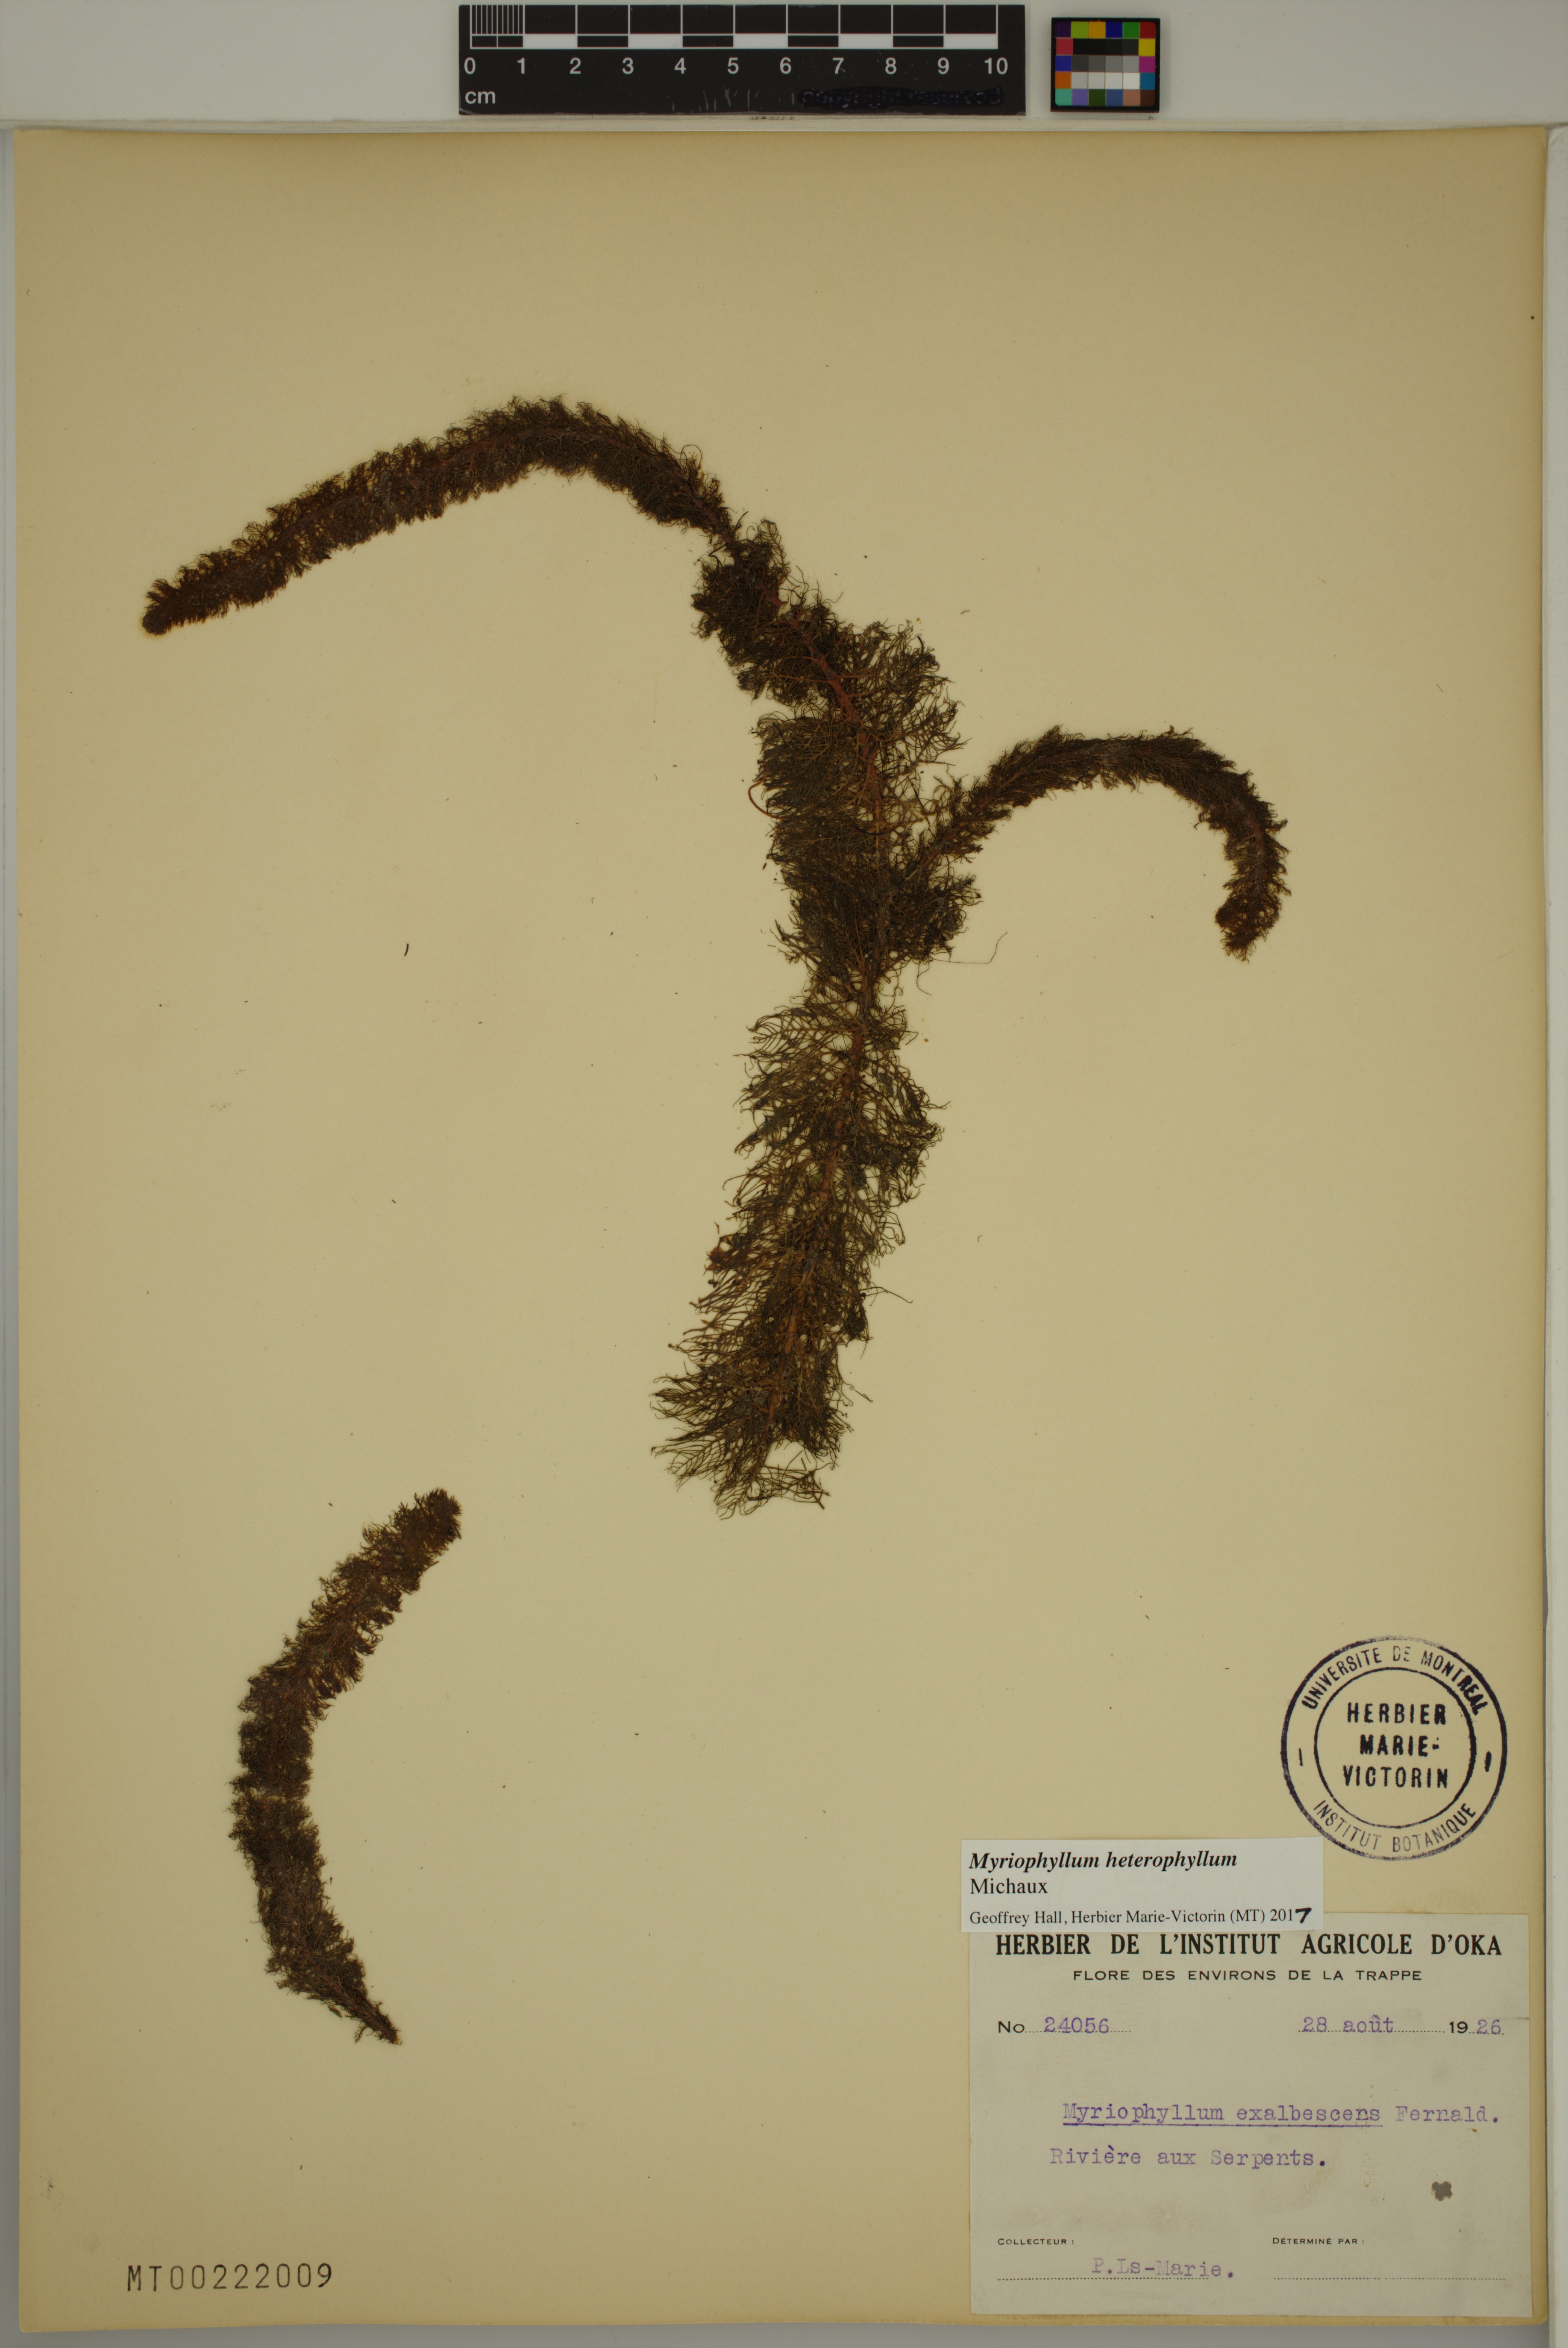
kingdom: Plantae
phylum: Tracheophyta
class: Magnoliopsida
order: Saxifragales
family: Haloragaceae
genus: Myriophyllum
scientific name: Myriophyllum heterophyllum
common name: Variable watermilfoil
